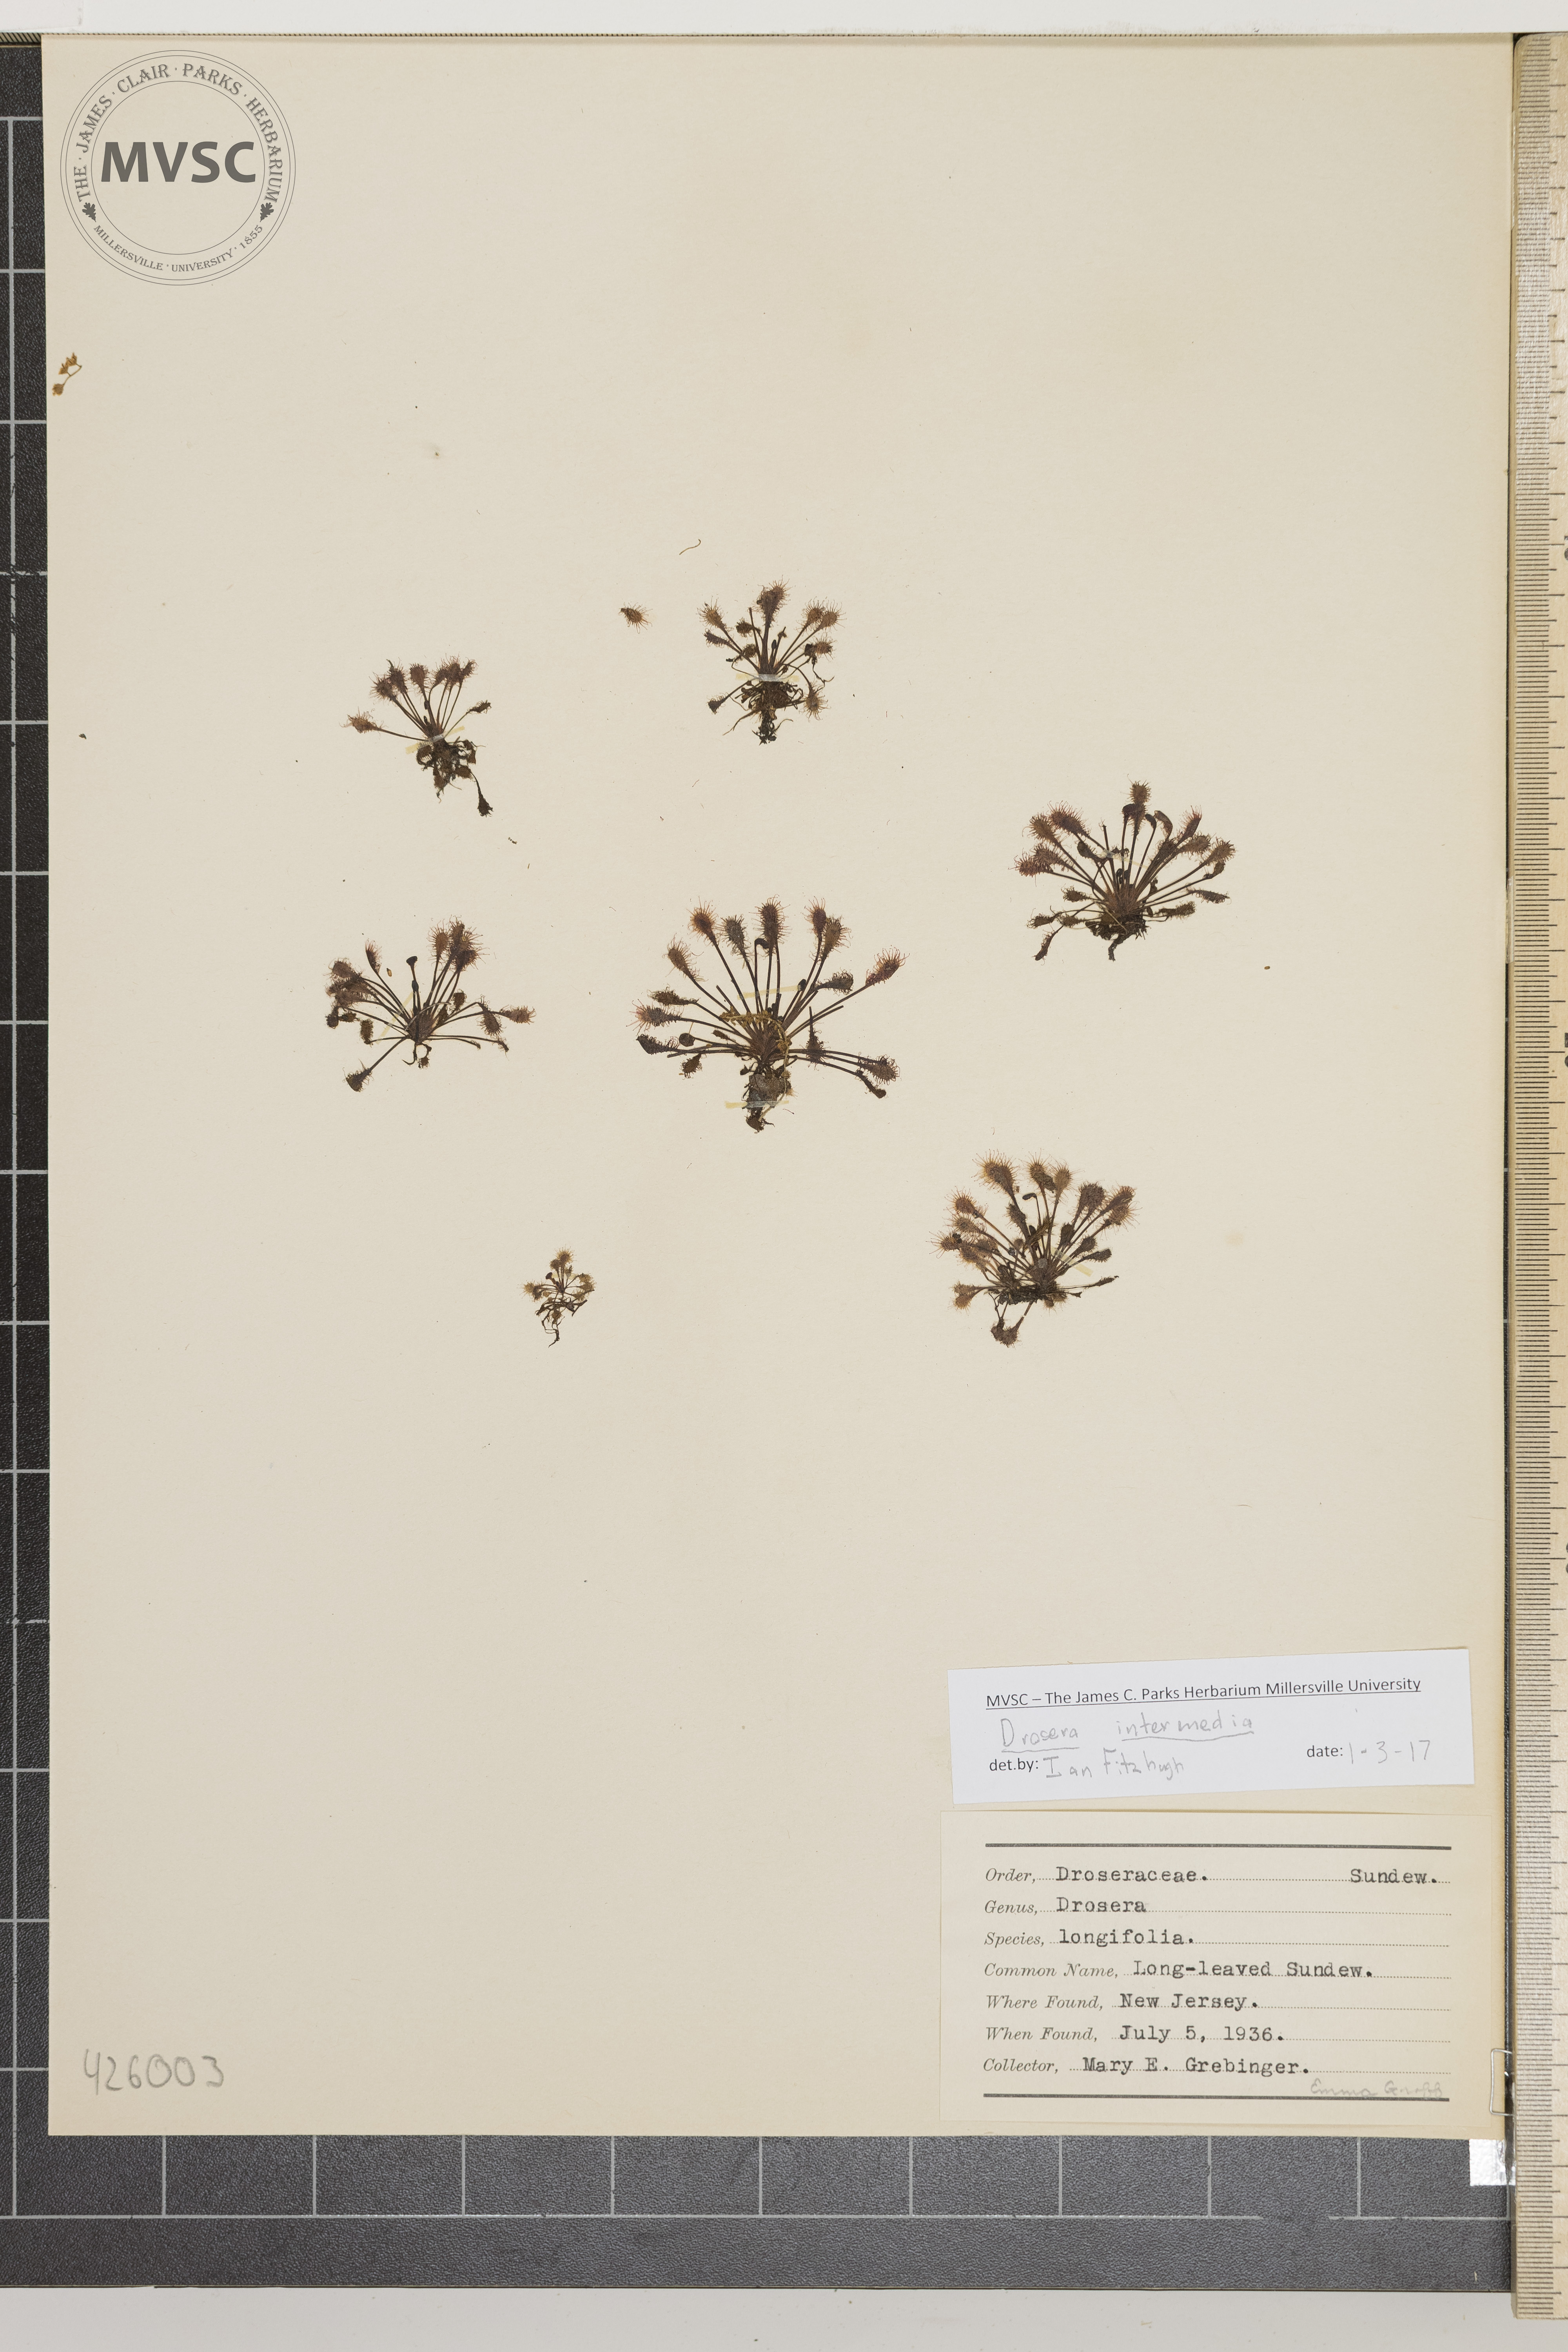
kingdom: Plantae
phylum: Tracheophyta
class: Magnoliopsida
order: Caryophyllales
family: Droseraceae
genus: Drosera
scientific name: Drosera intermedia
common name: Long-leaved Sundew
